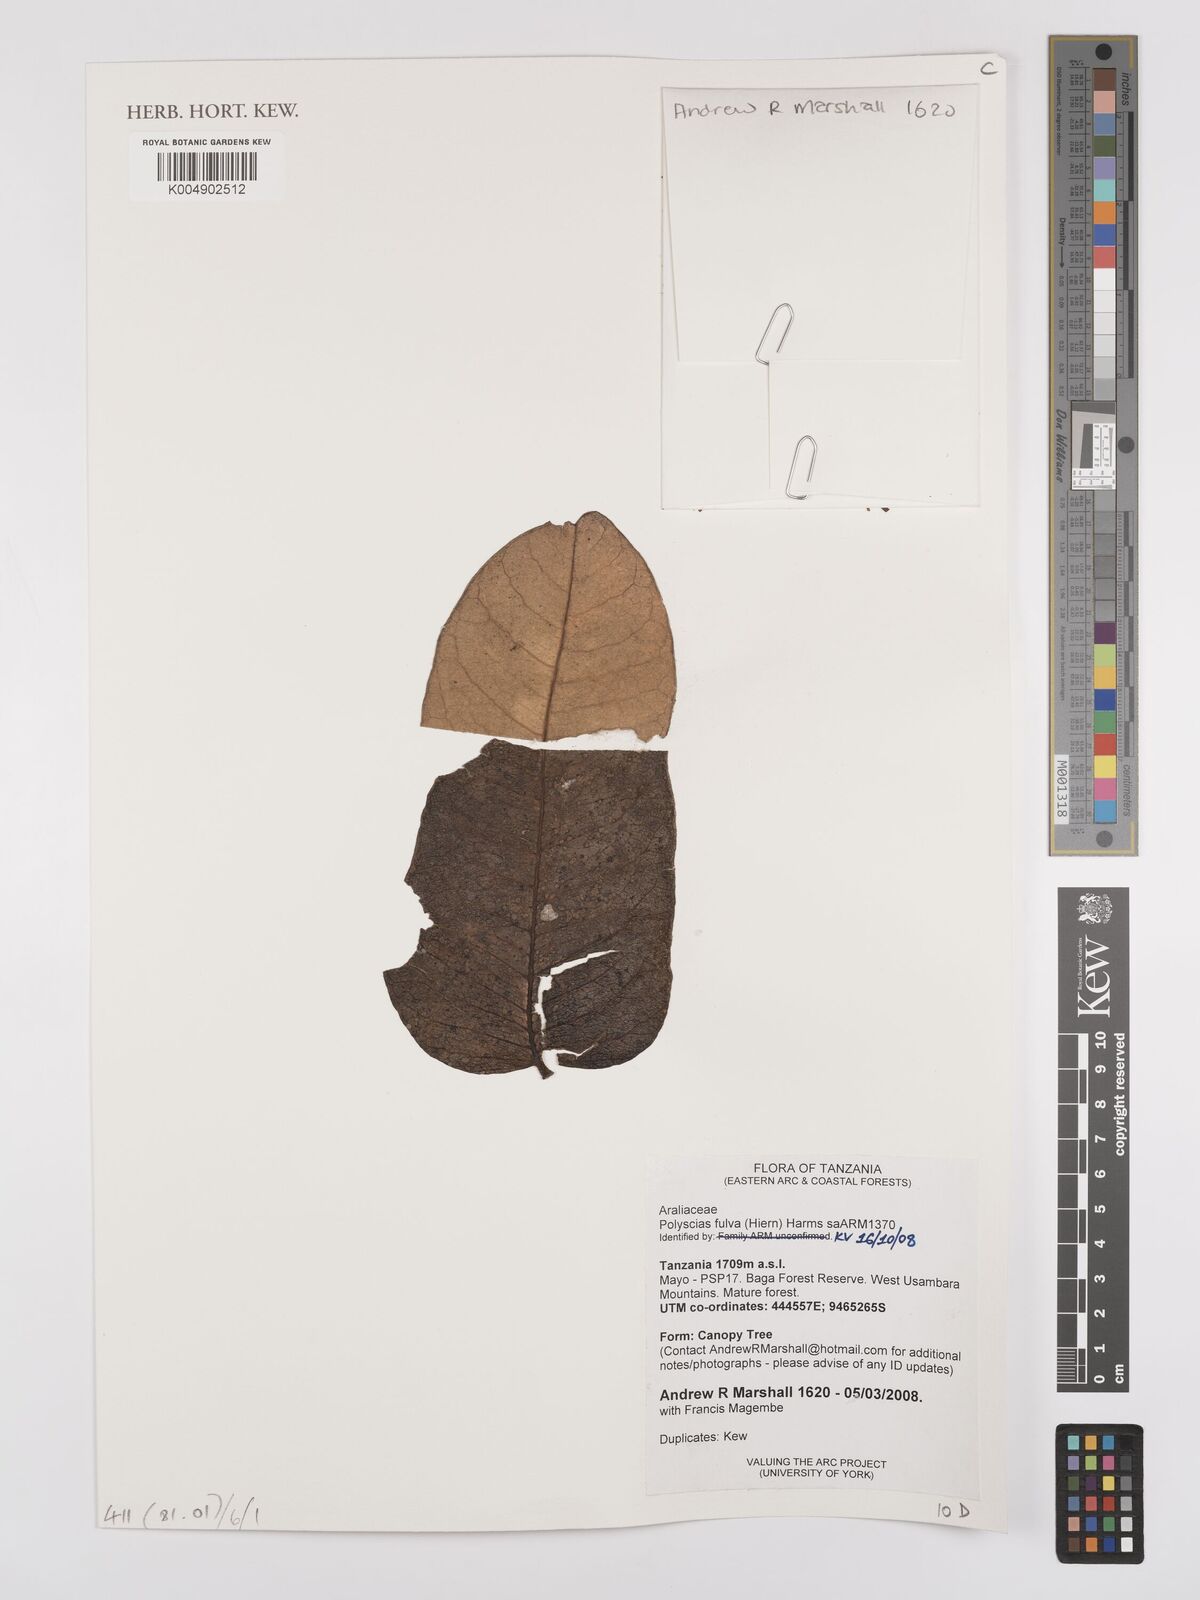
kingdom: Plantae
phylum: Tracheophyta
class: Magnoliopsida
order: Apiales
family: Araliaceae
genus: Polyscias
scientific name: Polyscias fulva
